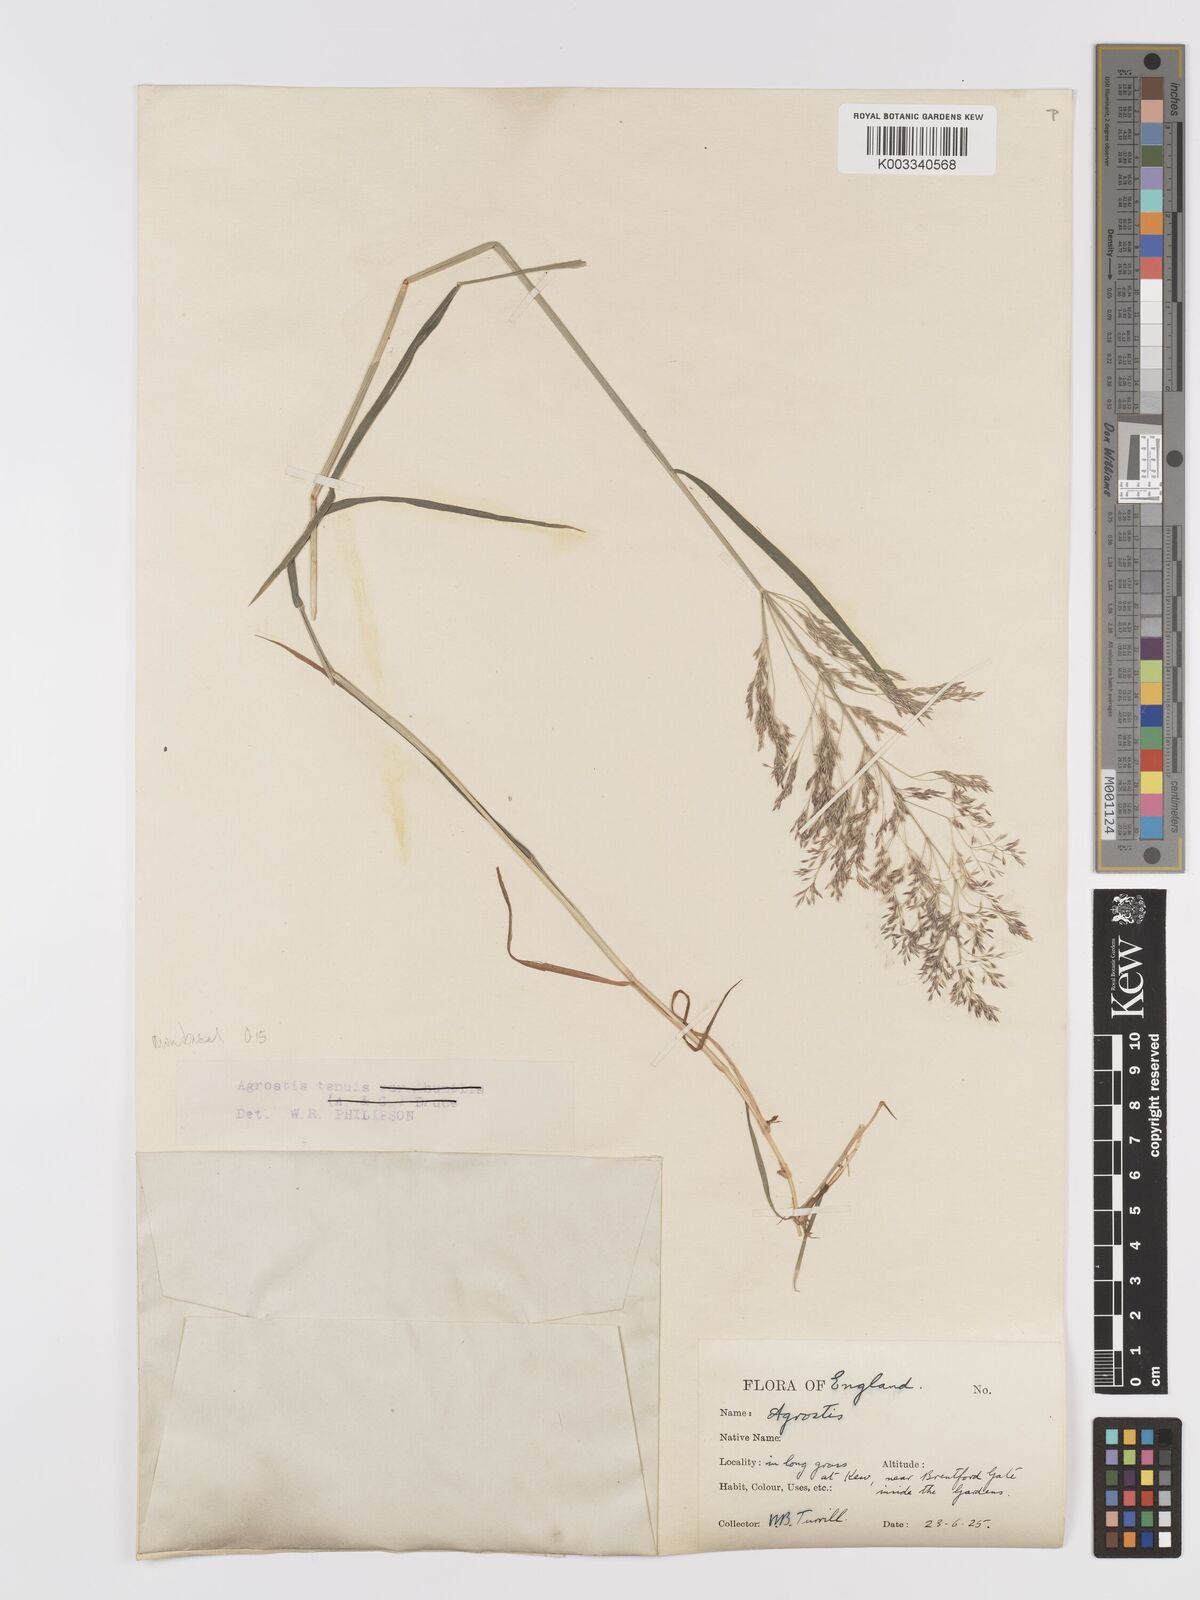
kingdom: Plantae
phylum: Tracheophyta
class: Liliopsida
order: Poales
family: Poaceae
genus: Agrostis
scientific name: Agrostis capillaris
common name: Colonial bentgrass
